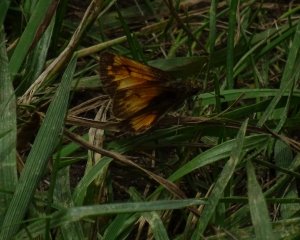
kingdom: Animalia
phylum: Arthropoda
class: Insecta
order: Lepidoptera
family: Hesperiidae
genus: Lon
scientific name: Lon hobomok
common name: Hobomok Skipper
